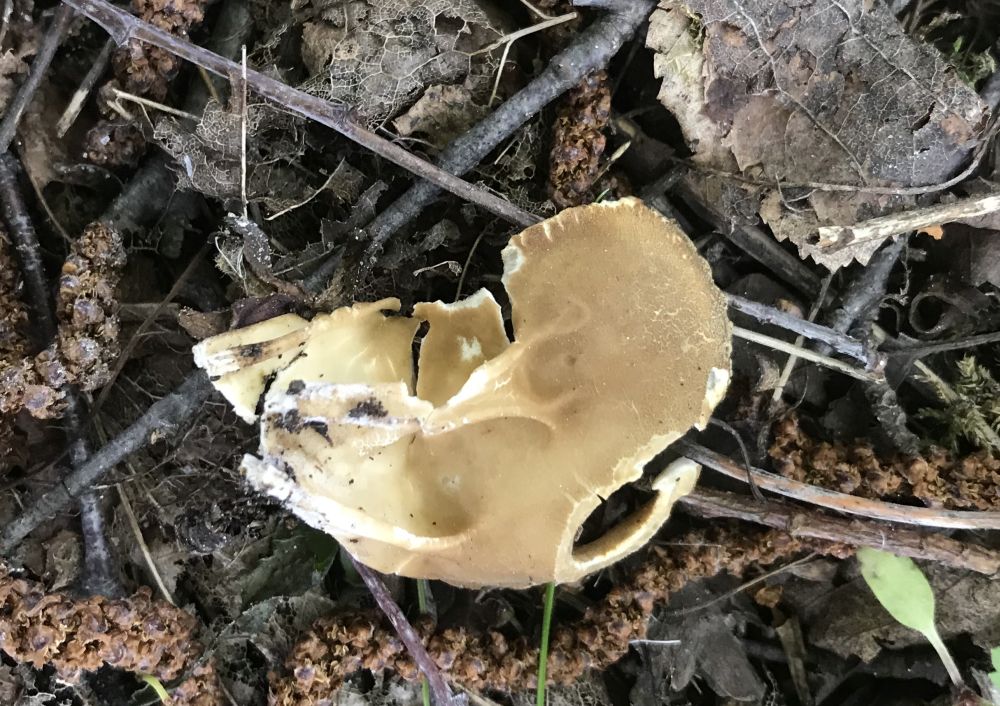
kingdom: Fungi
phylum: Ascomycota
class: Pezizomycetes
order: Pezizales
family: Helvellaceae
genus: Helvella
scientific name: Helvella acetabulum
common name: pokal-foldhat
